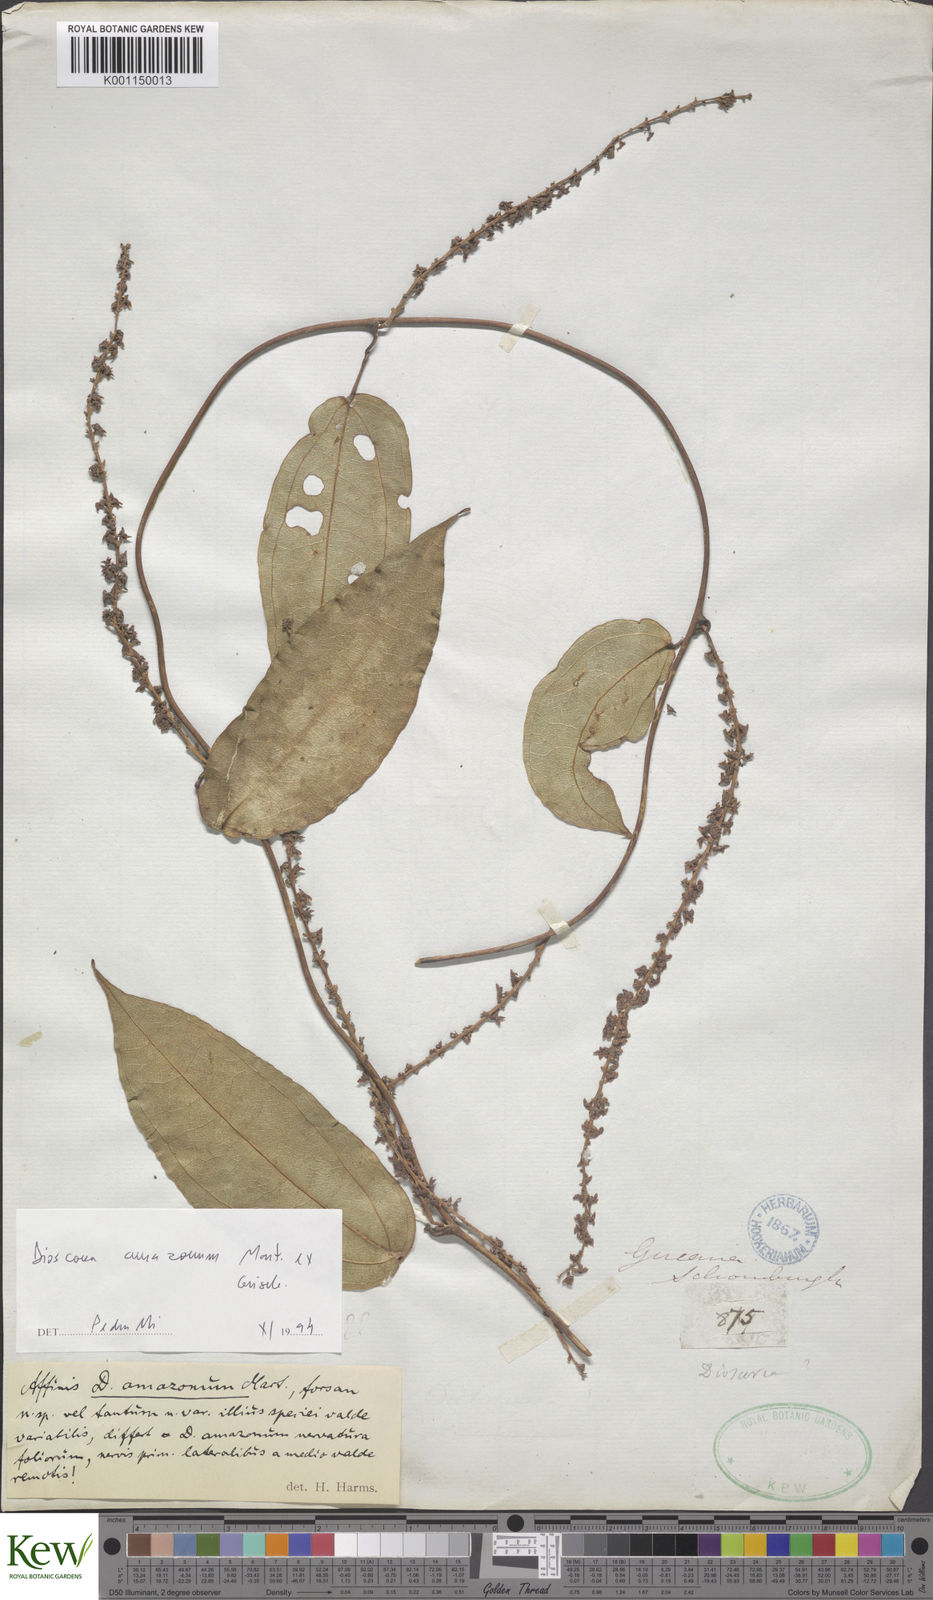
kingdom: Plantae
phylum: Tracheophyta
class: Liliopsida
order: Dioscoreales
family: Dioscoreaceae
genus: Dioscorea
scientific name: Dioscorea amazonum
